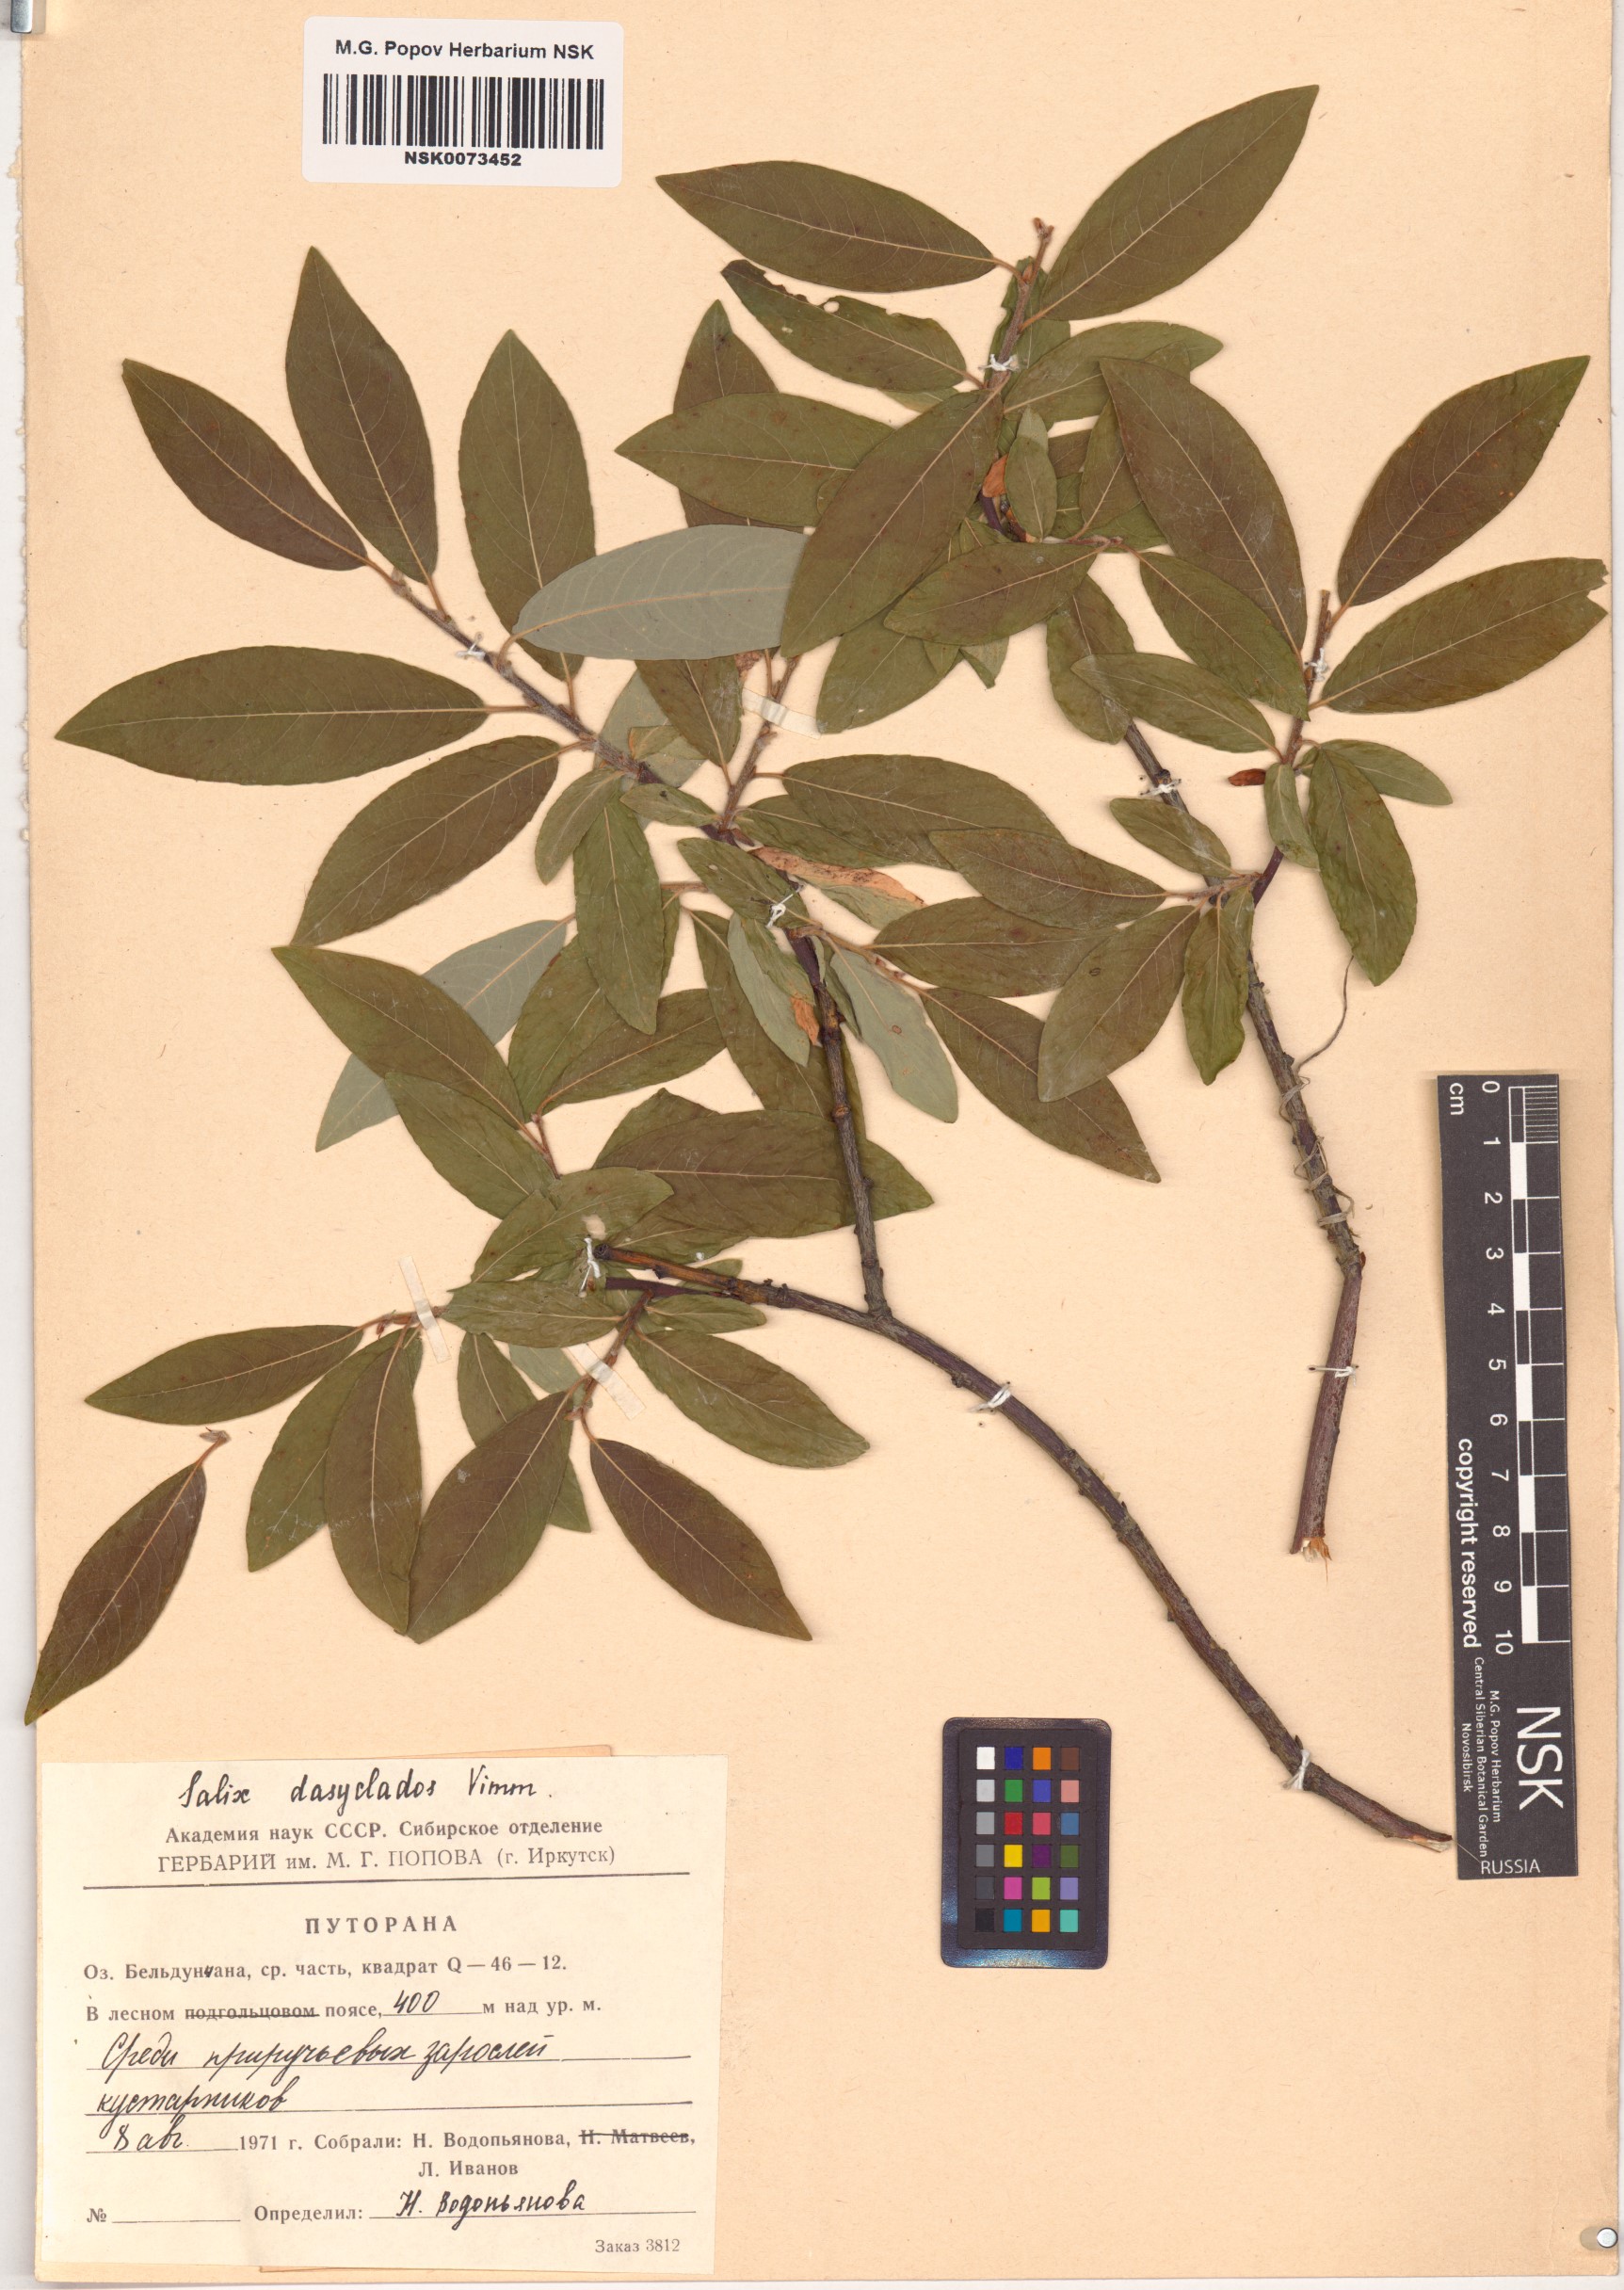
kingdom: Plantae
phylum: Tracheophyta
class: Magnoliopsida
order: Malpighiales
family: Salicaceae
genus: Salix
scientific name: Salix gmelinii
